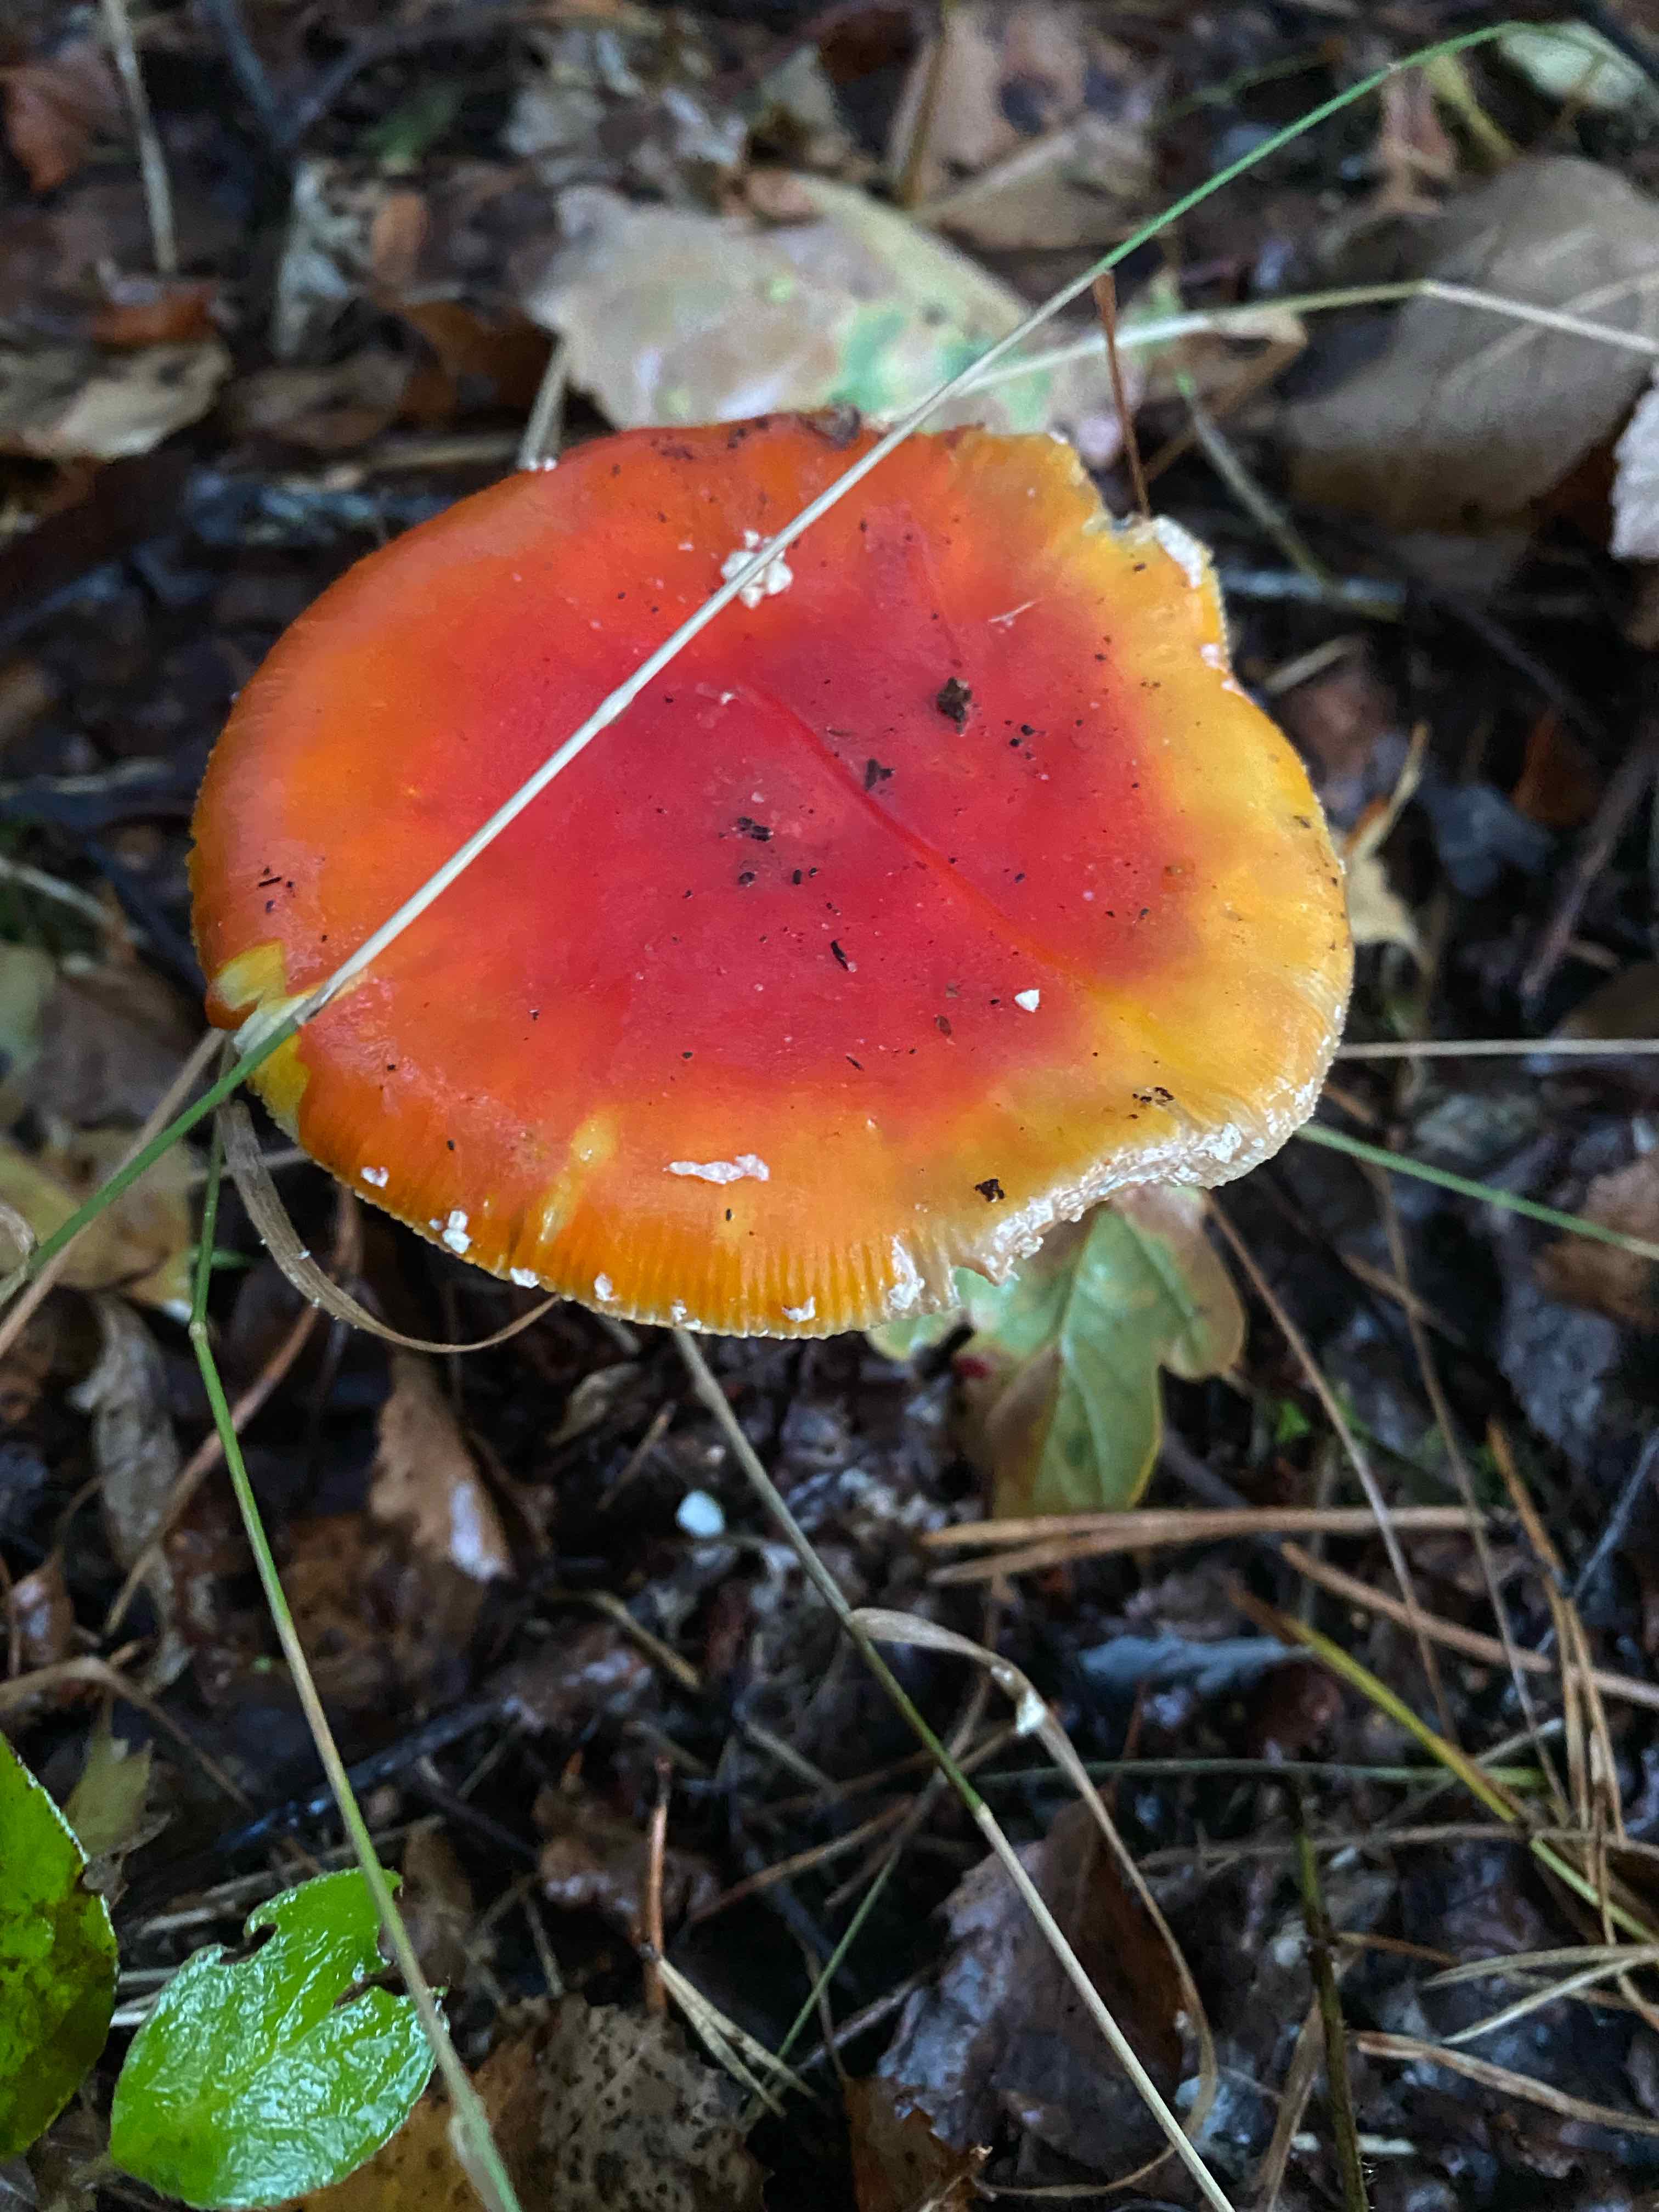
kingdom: Fungi
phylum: Basidiomycota
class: Agaricomycetes
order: Agaricales
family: Amanitaceae
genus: Amanita
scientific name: Amanita muscaria
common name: rød fluesvamp
